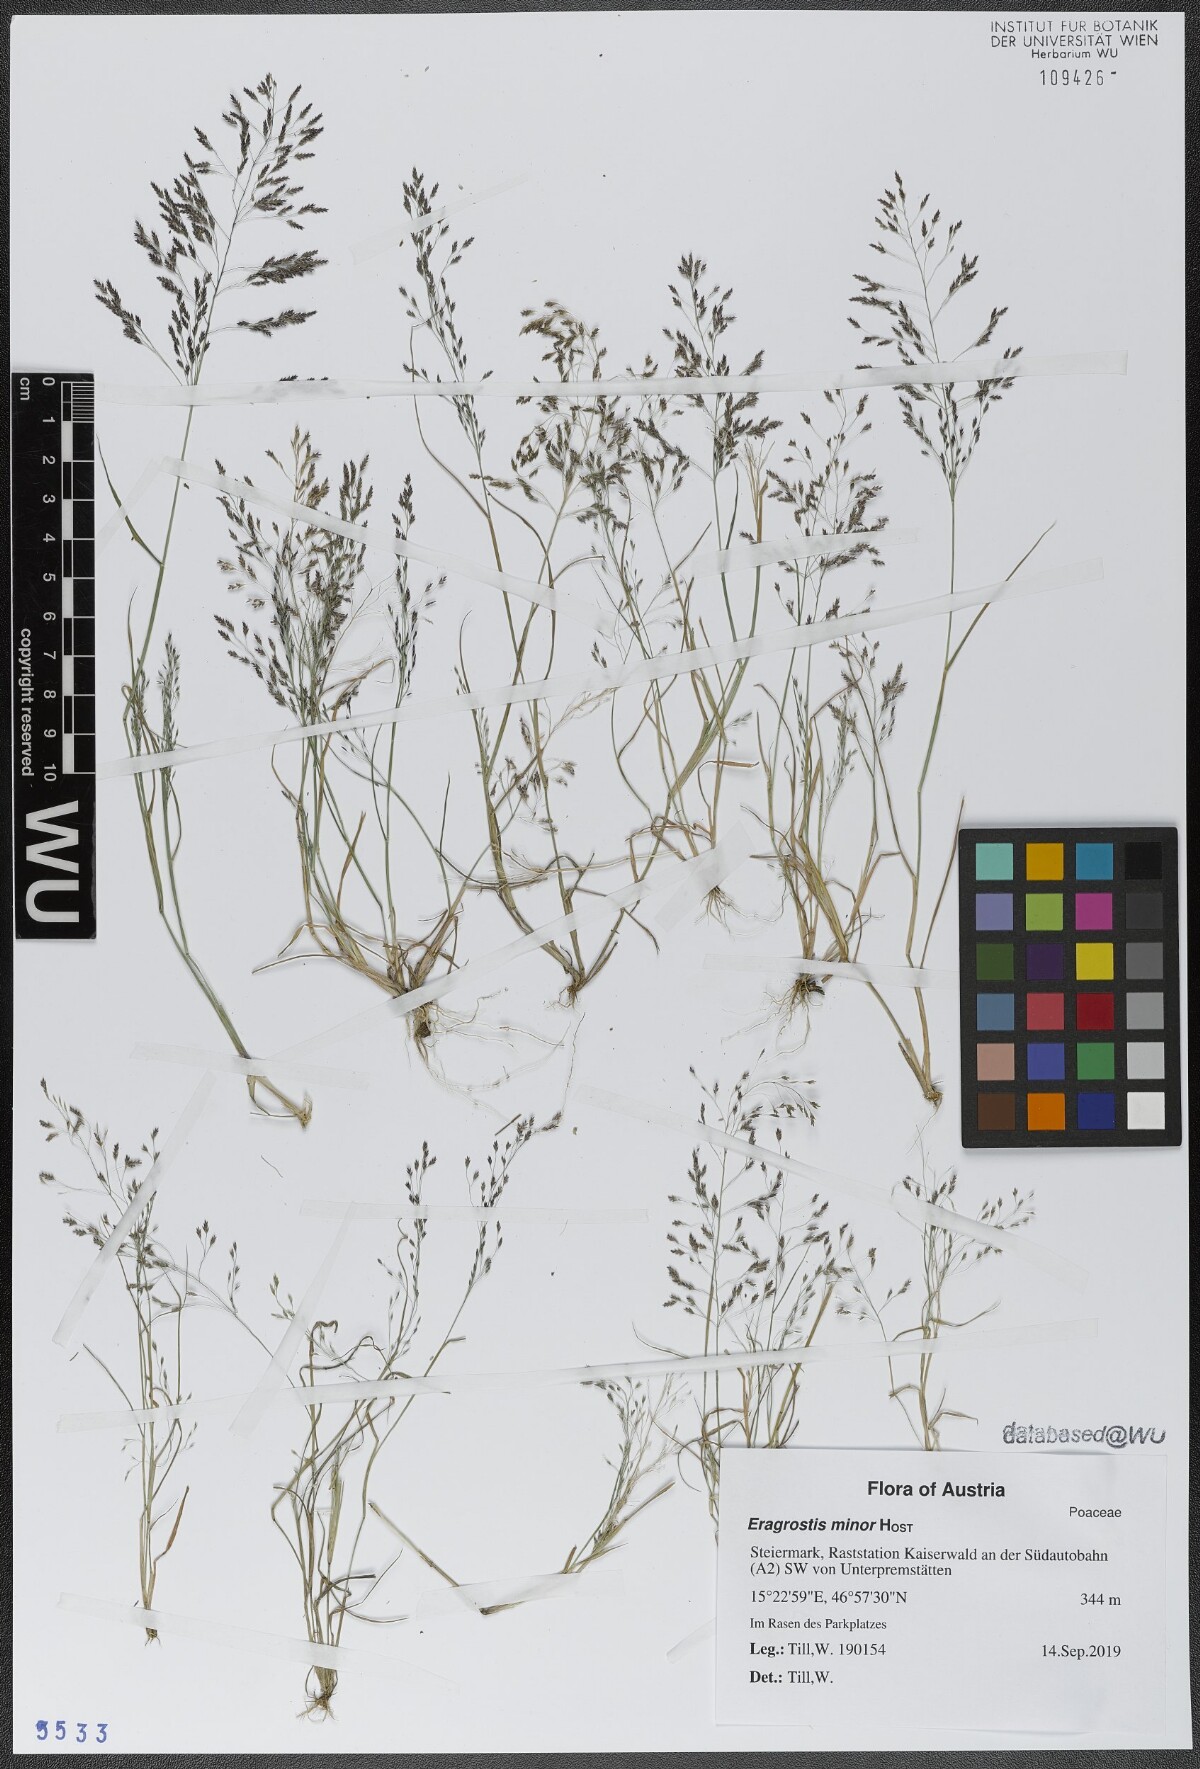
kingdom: Plantae
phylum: Tracheophyta
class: Liliopsida
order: Poales
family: Poaceae
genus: Eragrostis
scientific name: Eragrostis minor
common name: Small love-grass
